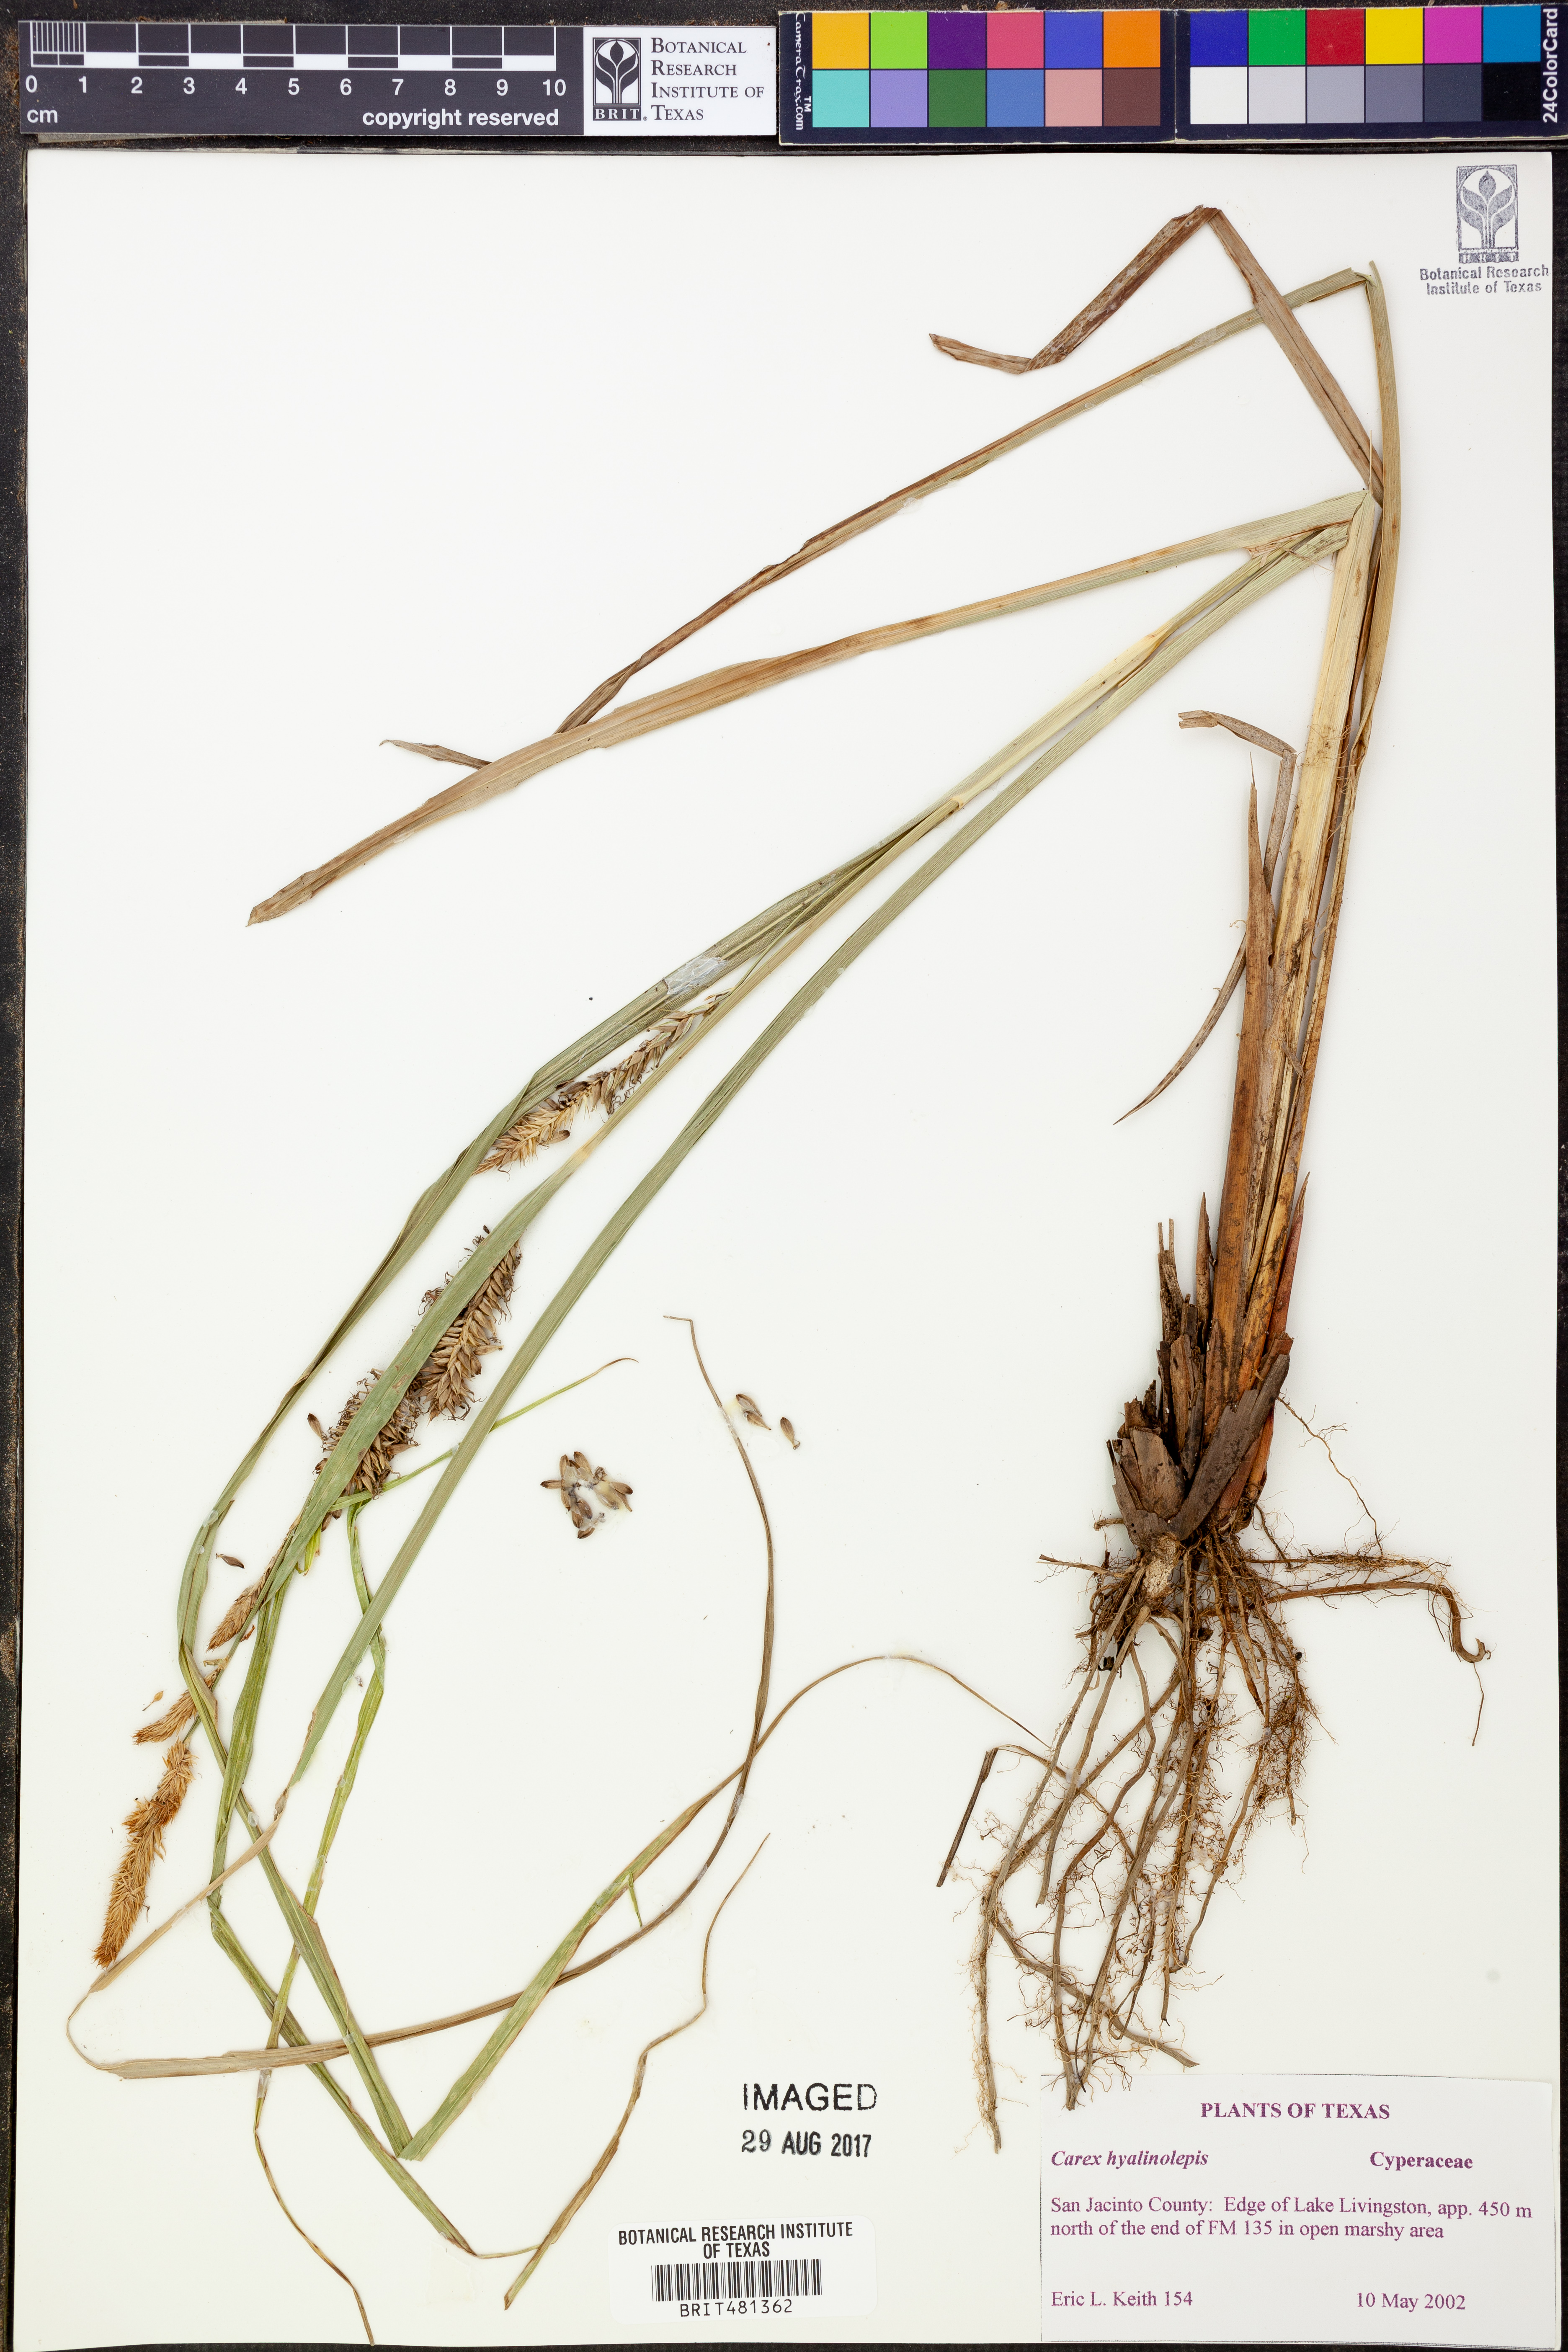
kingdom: Plantae
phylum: Tracheophyta
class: Liliopsida
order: Poales
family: Cyperaceae
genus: Carex
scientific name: Carex hyalinolepis
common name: Shoreline sedge
